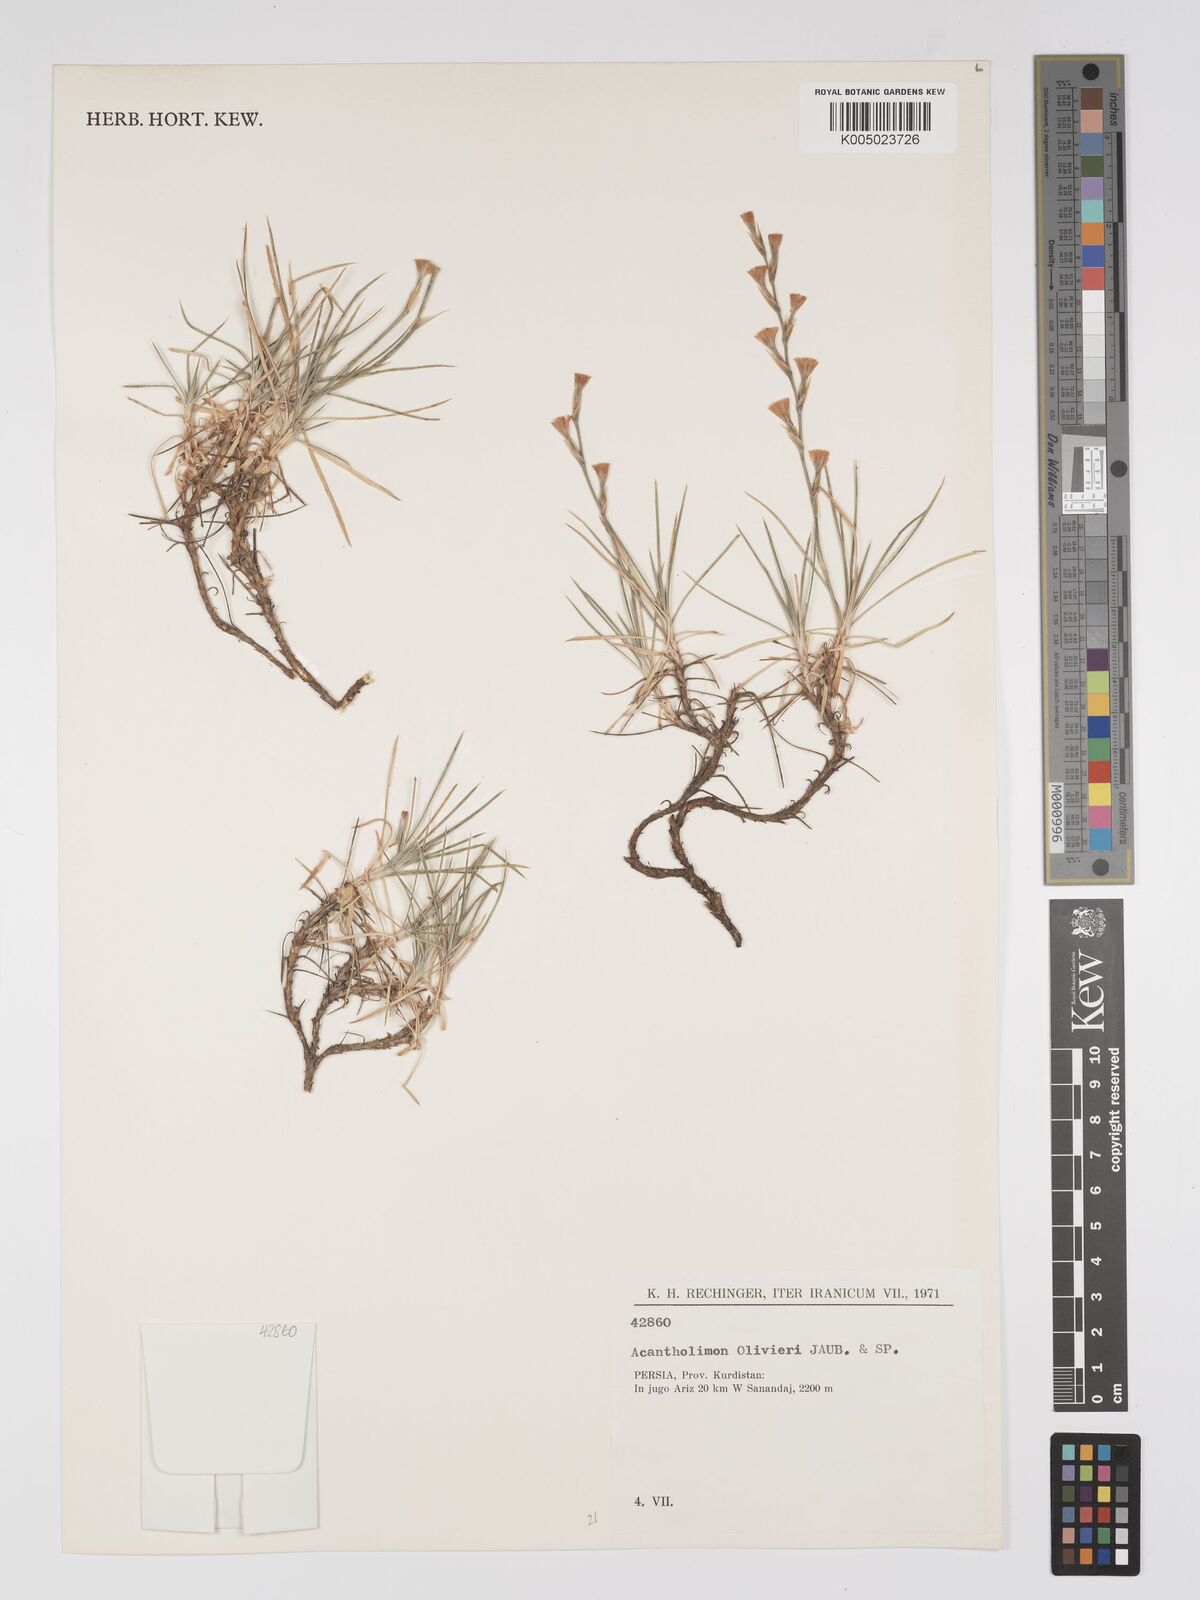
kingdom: Plantae
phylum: Tracheophyta
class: Magnoliopsida
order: Caryophyllales
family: Plumbaginaceae
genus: Acantholimon
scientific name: Acantholimon oliveri
